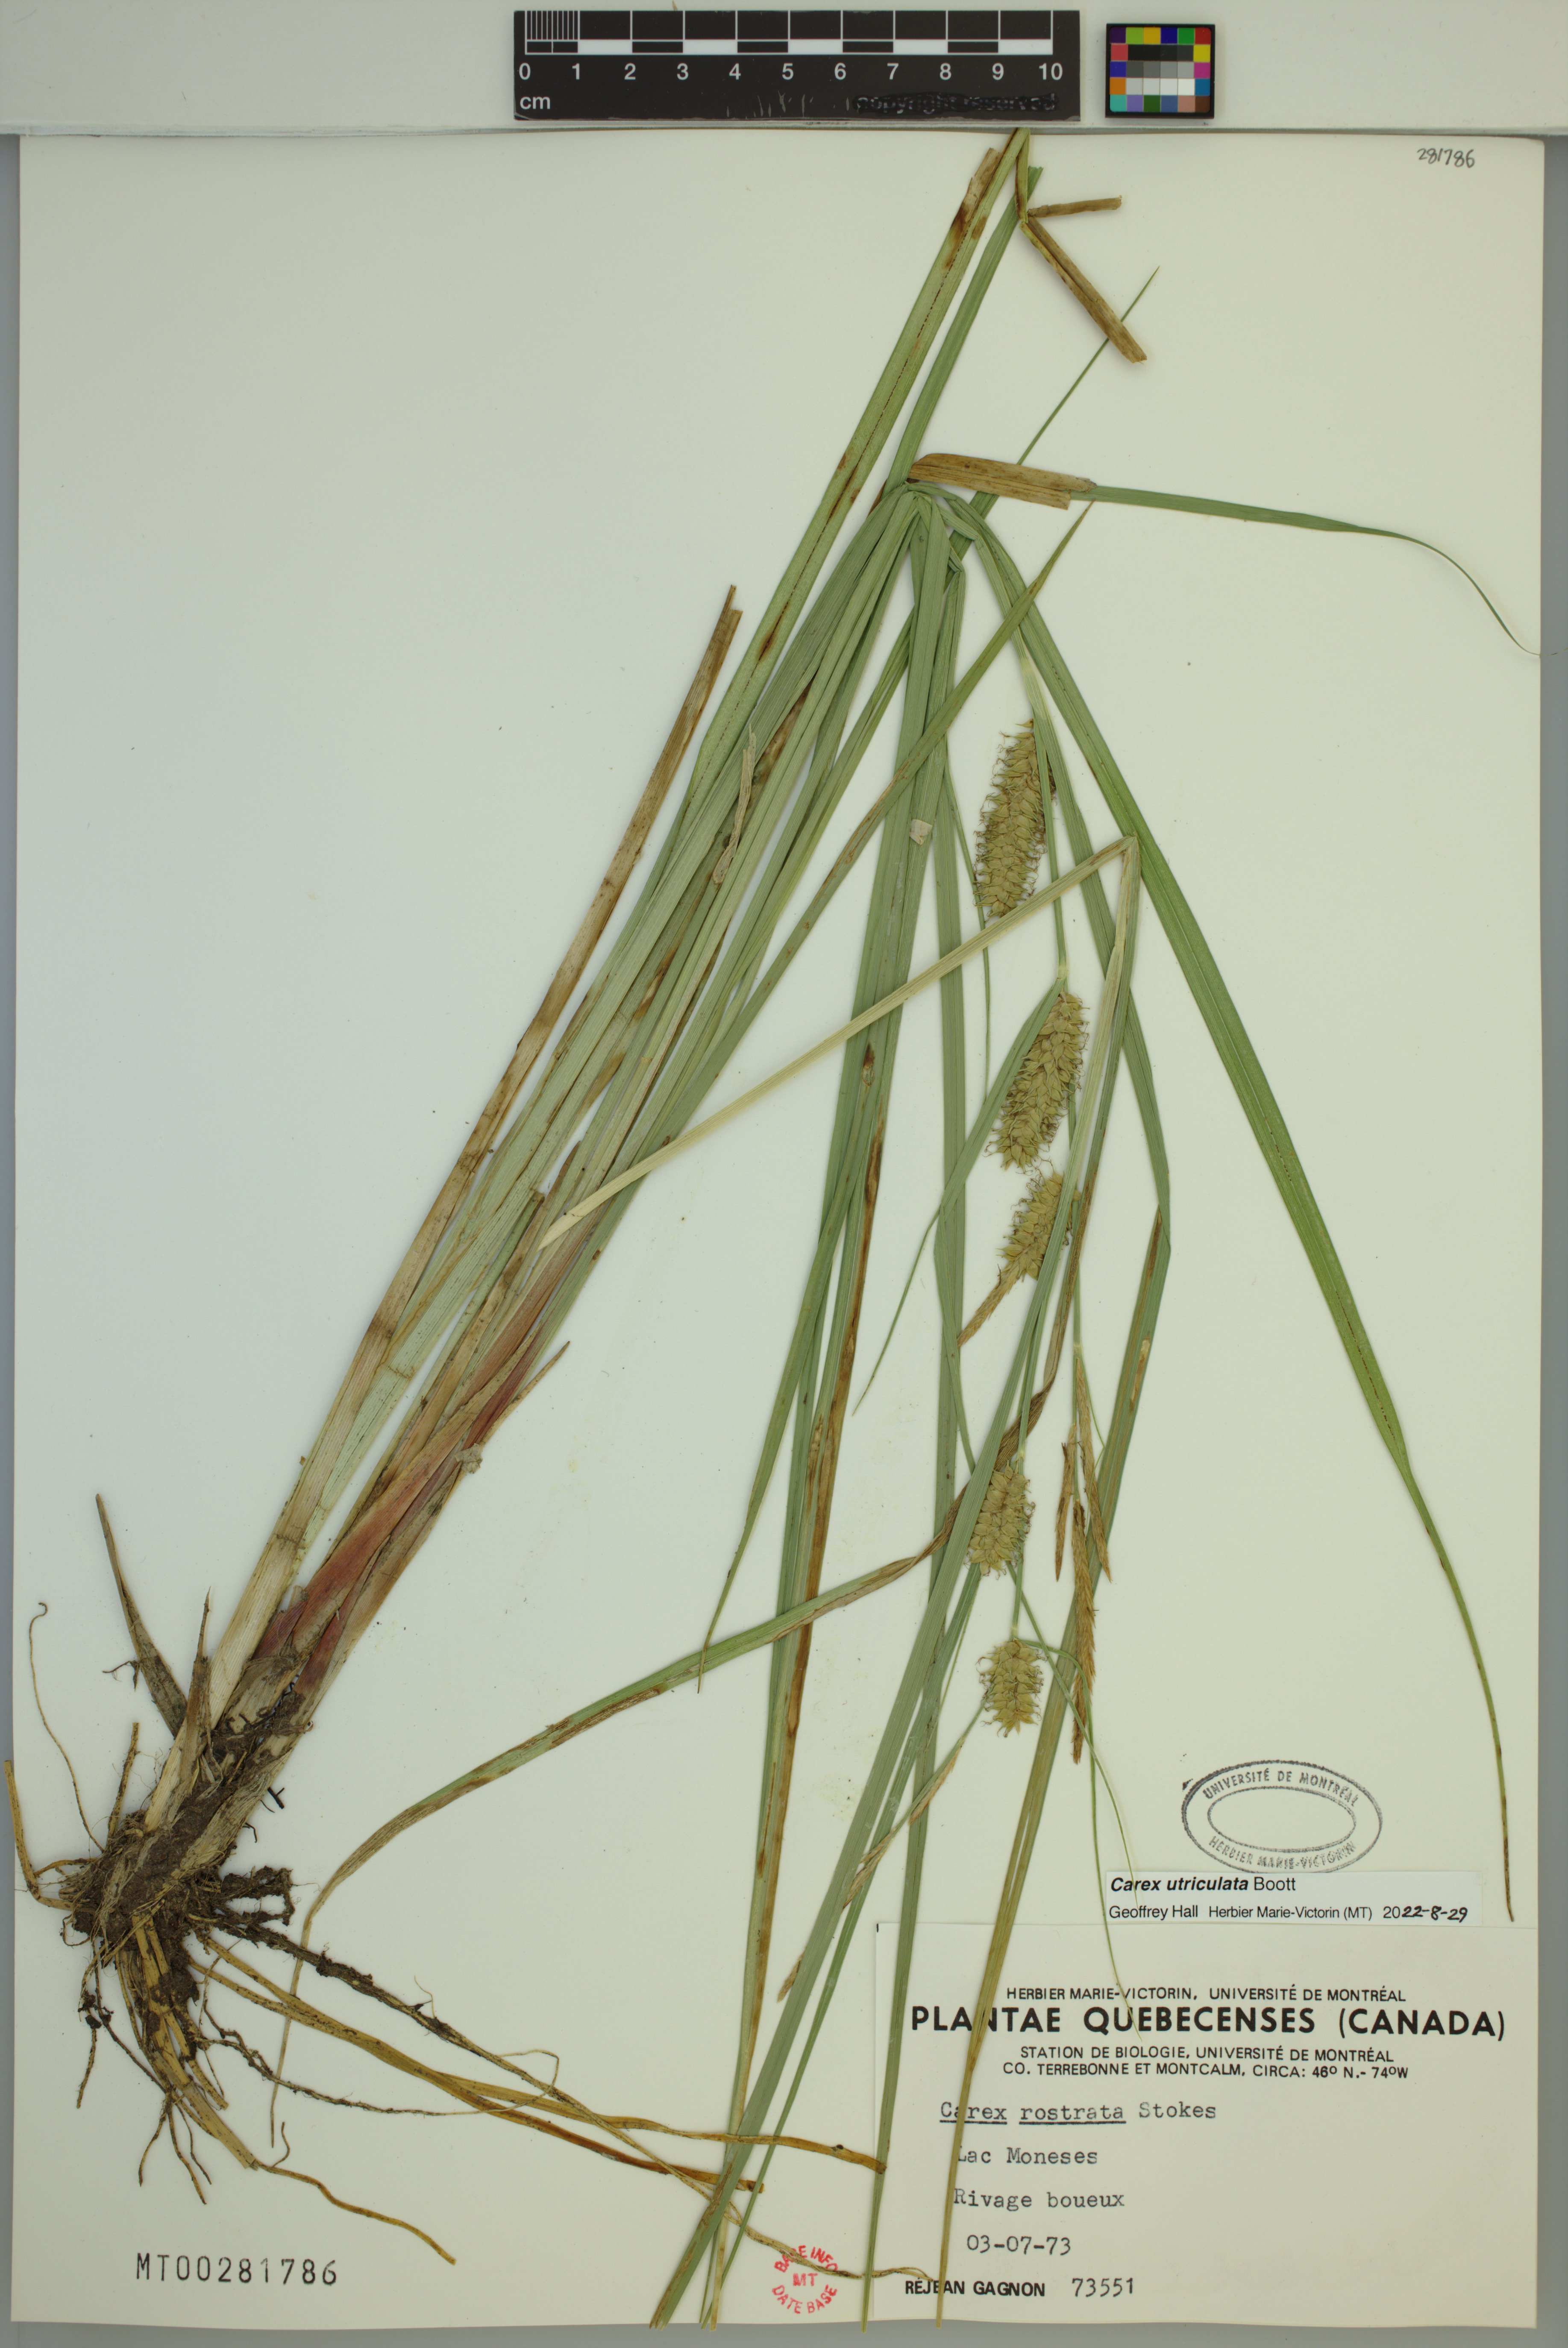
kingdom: Plantae
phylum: Tracheophyta
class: Liliopsida
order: Poales
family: Cyperaceae
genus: Carex
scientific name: Carex utriculata
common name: Beaked sedge
